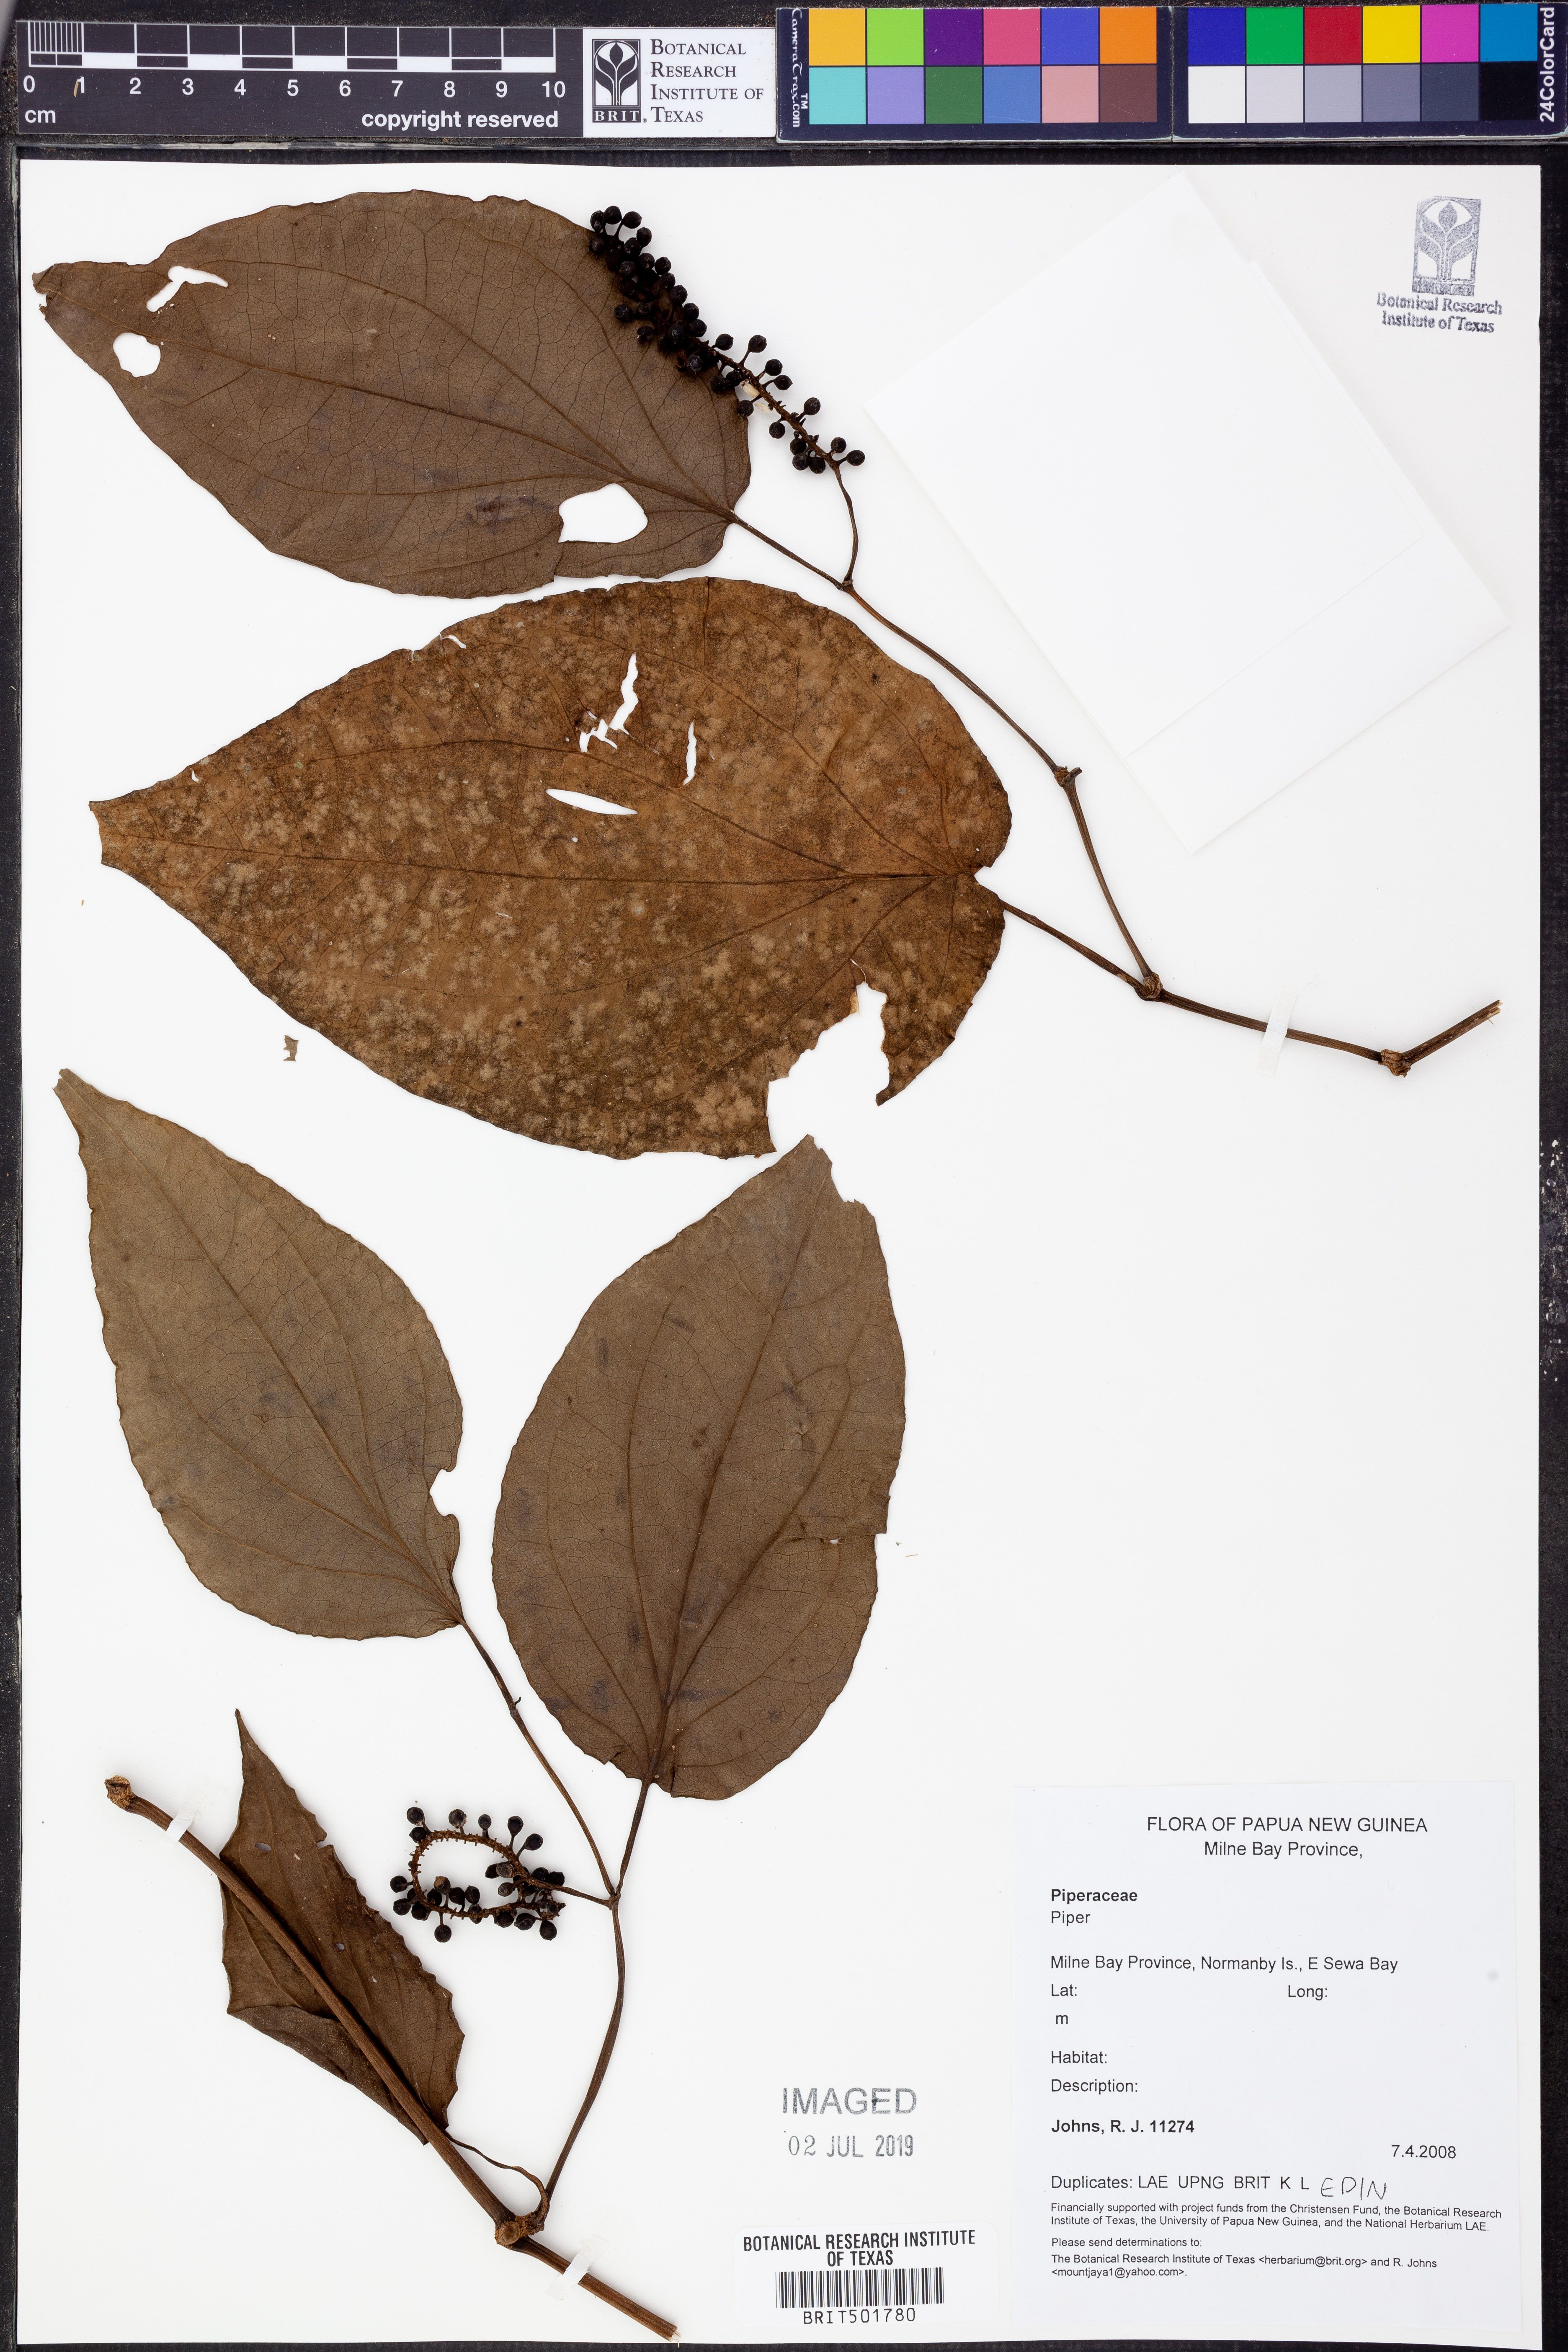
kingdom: Plantae
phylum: Tracheophyta
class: Magnoliopsida
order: Piperales
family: Piperaceae
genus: Piper
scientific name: Piper
